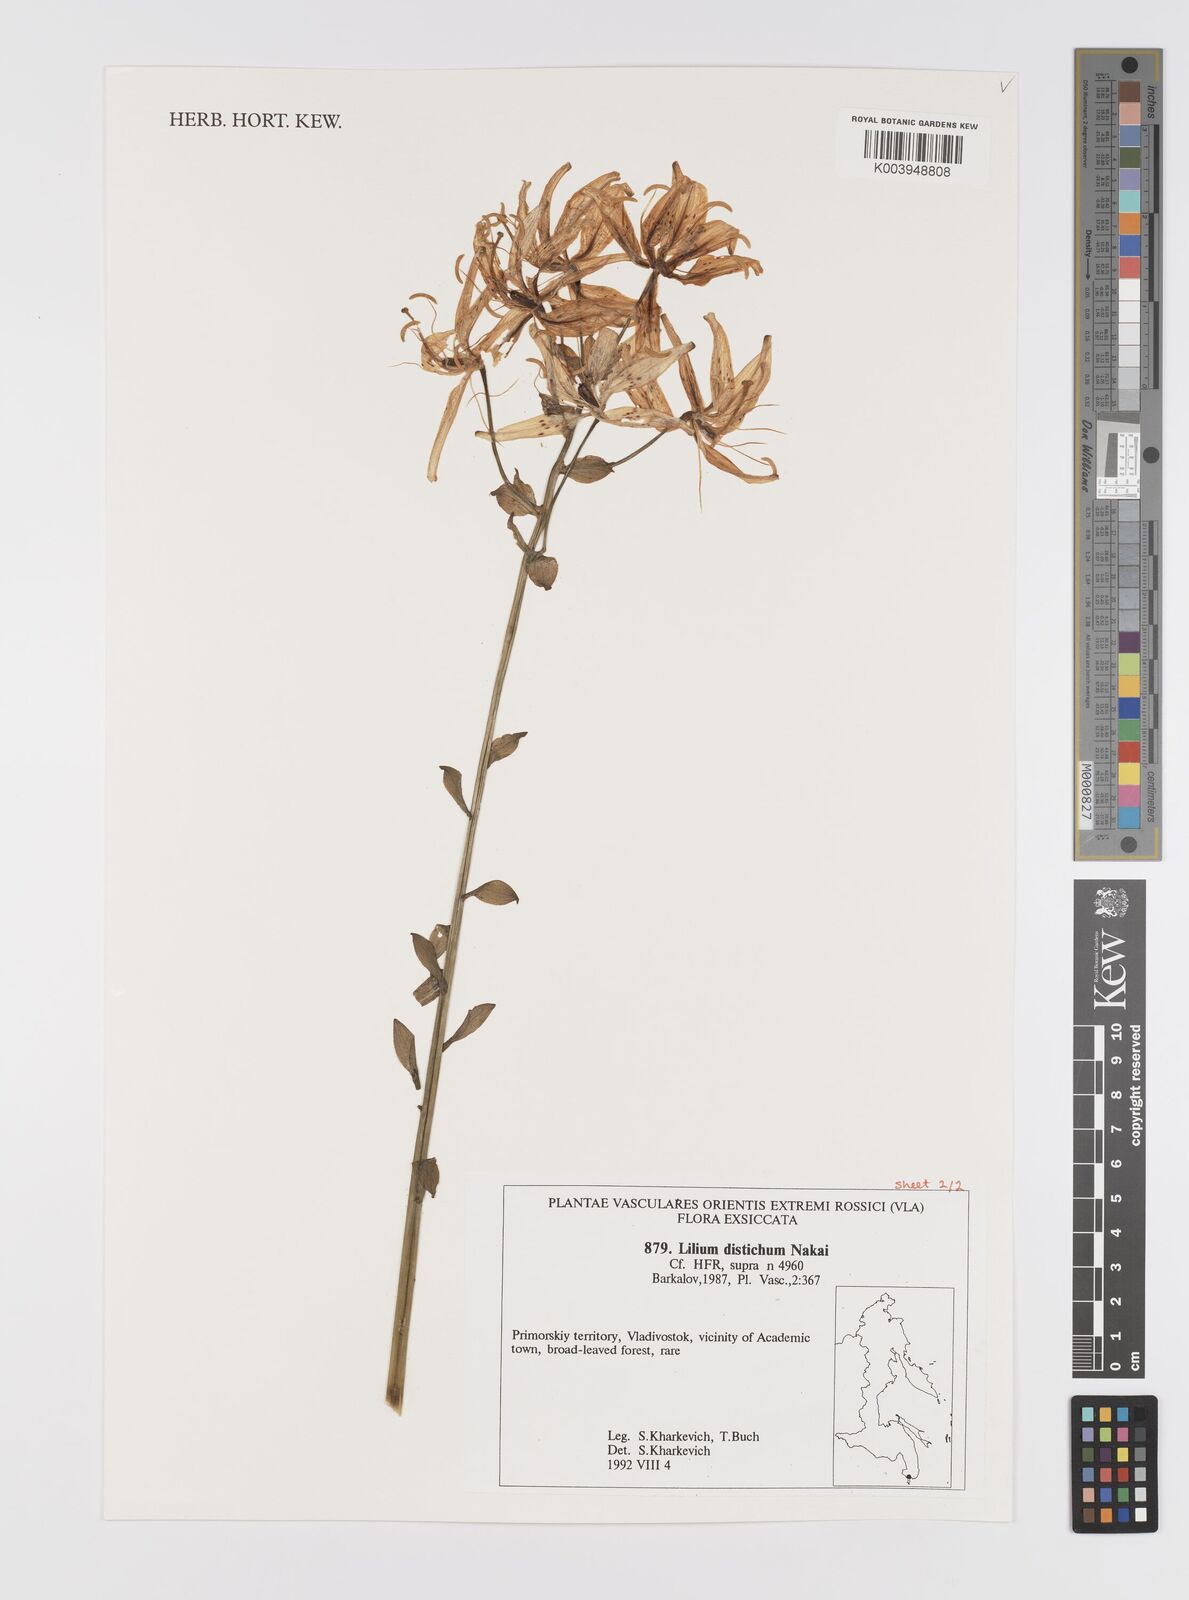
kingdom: Plantae
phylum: Tracheophyta
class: Liliopsida
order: Liliales
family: Liliaceae
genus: Lilium
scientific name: Lilium distichum
